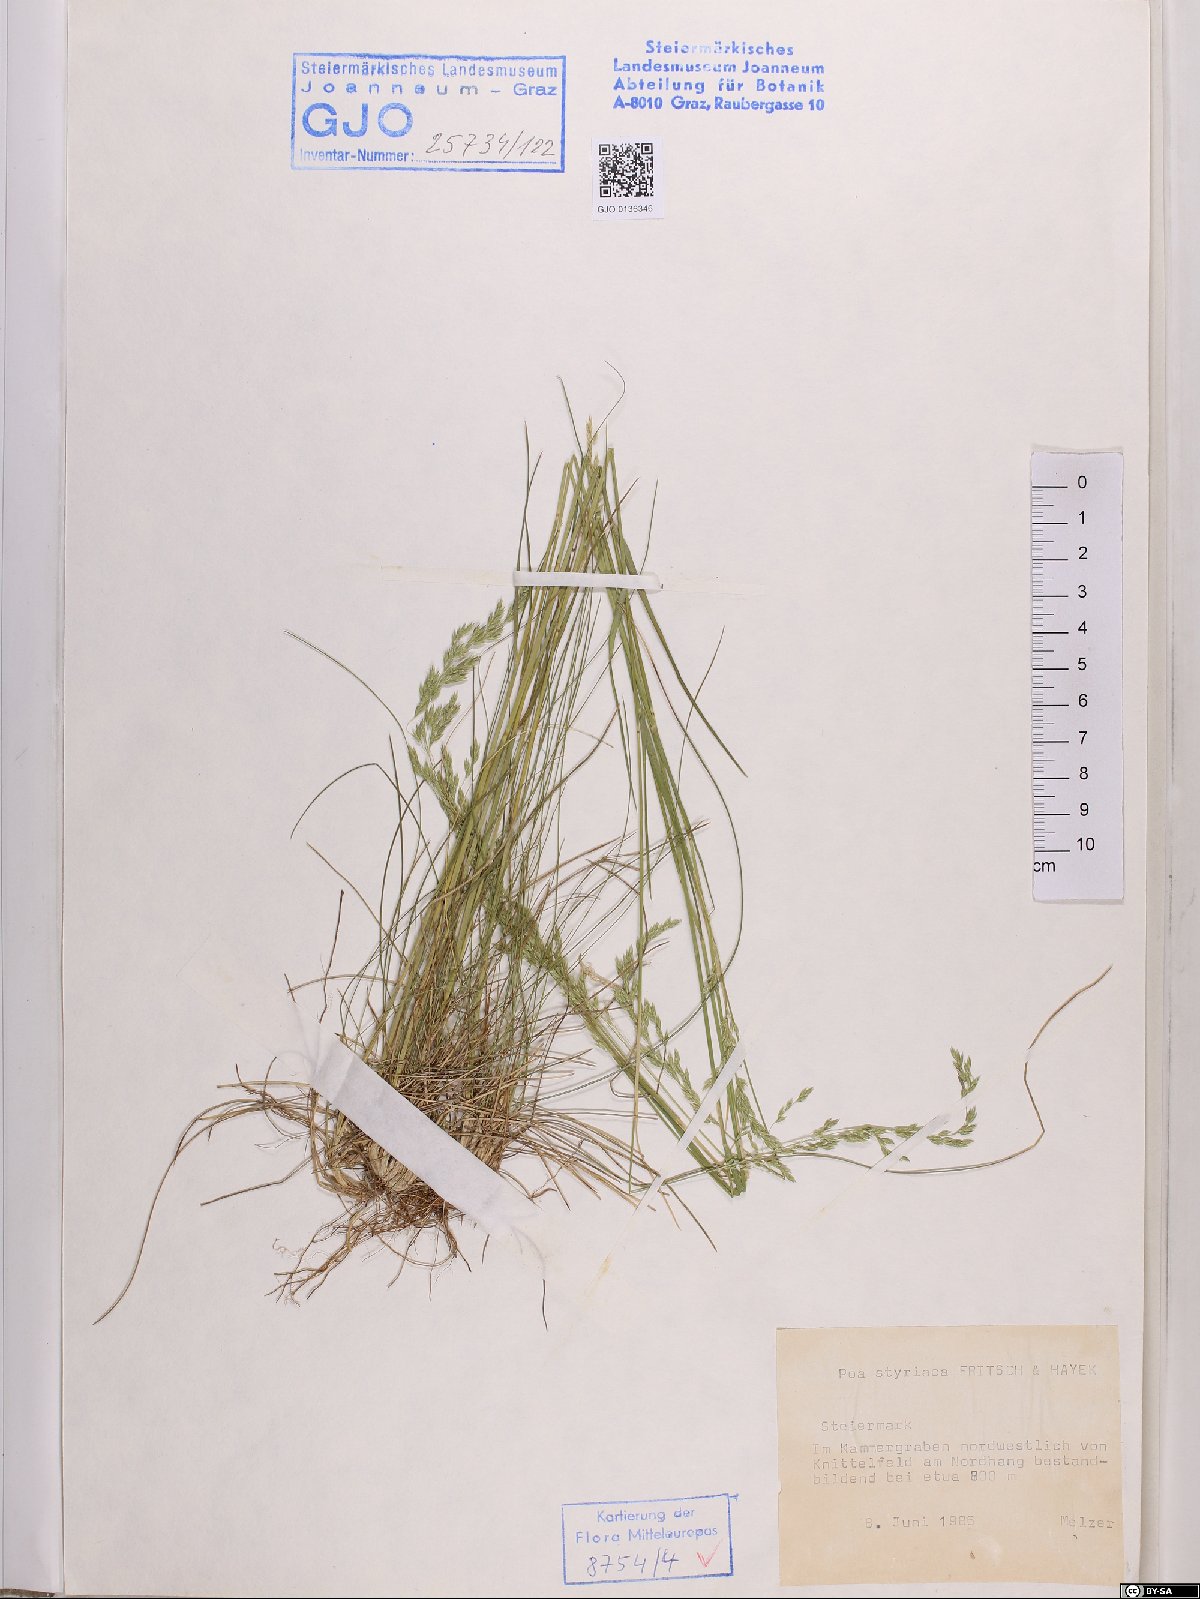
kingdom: Plantae
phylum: Tracheophyta
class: Liliopsida
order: Poales
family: Poaceae
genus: Poa
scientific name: Poa stiriaca
